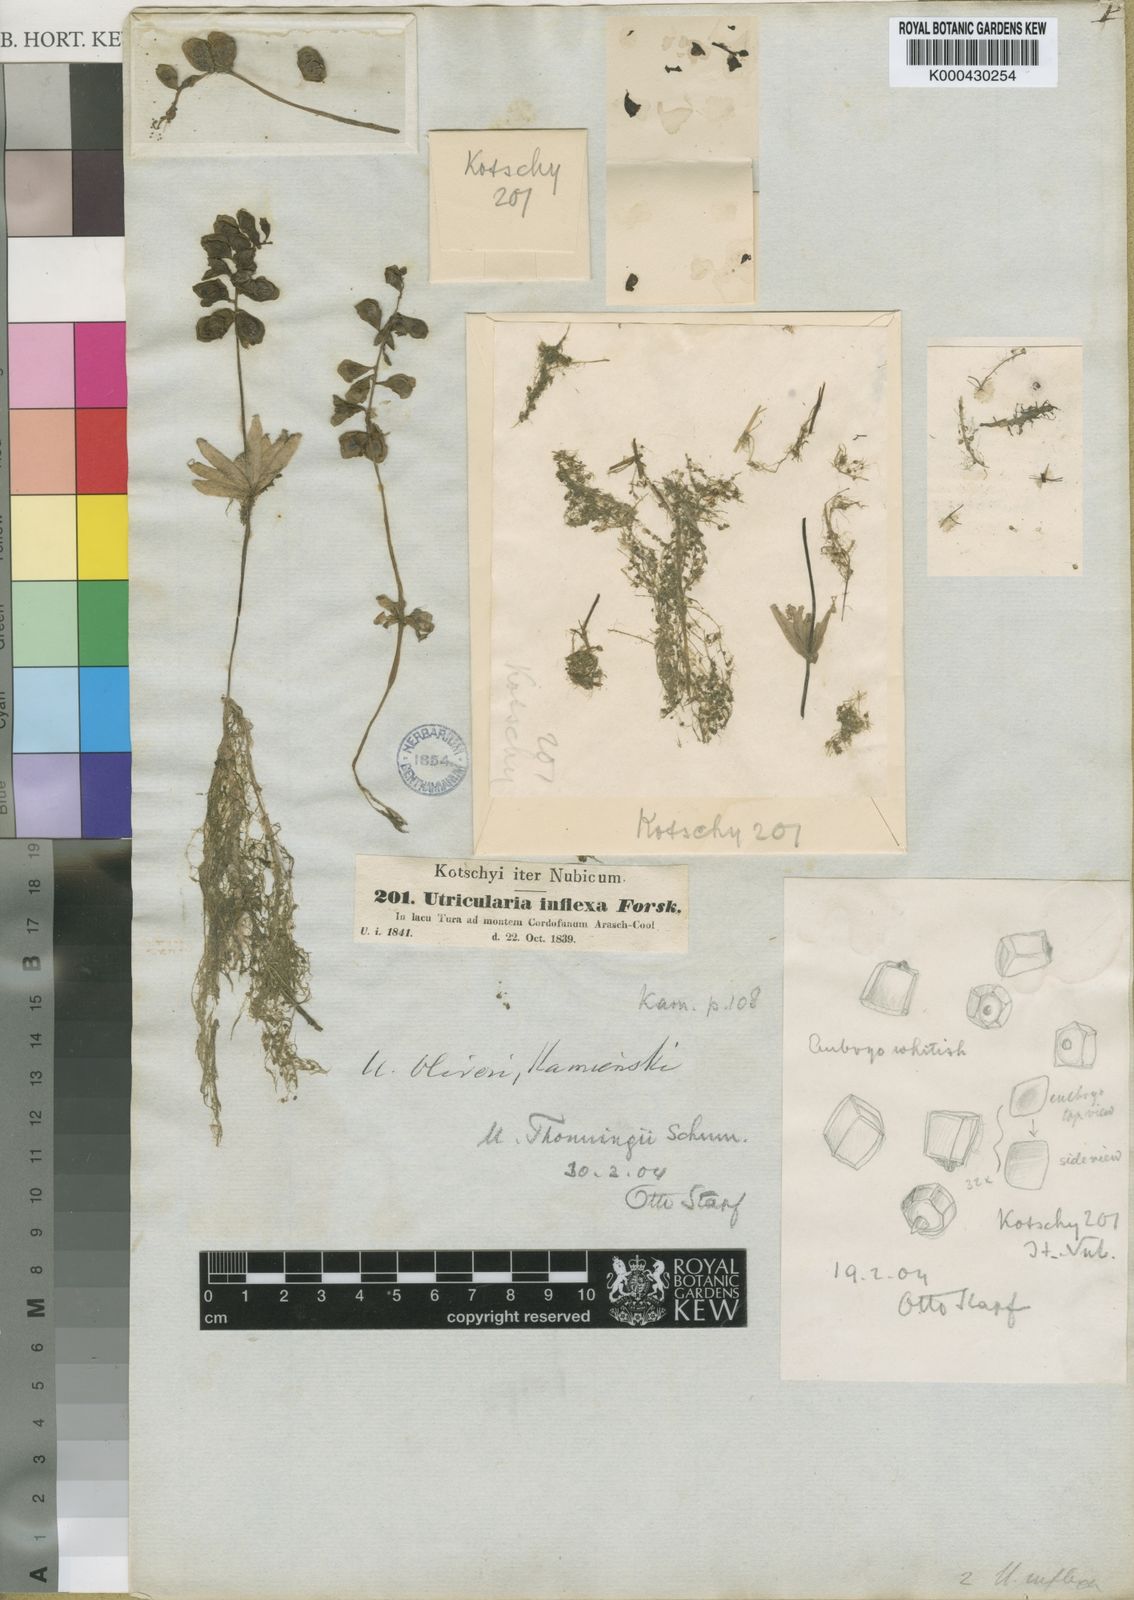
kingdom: Plantae
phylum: Tracheophyta
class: Magnoliopsida
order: Lamiales
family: Lentibulariaceae
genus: Utricularia
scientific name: Utricularia reflexa
